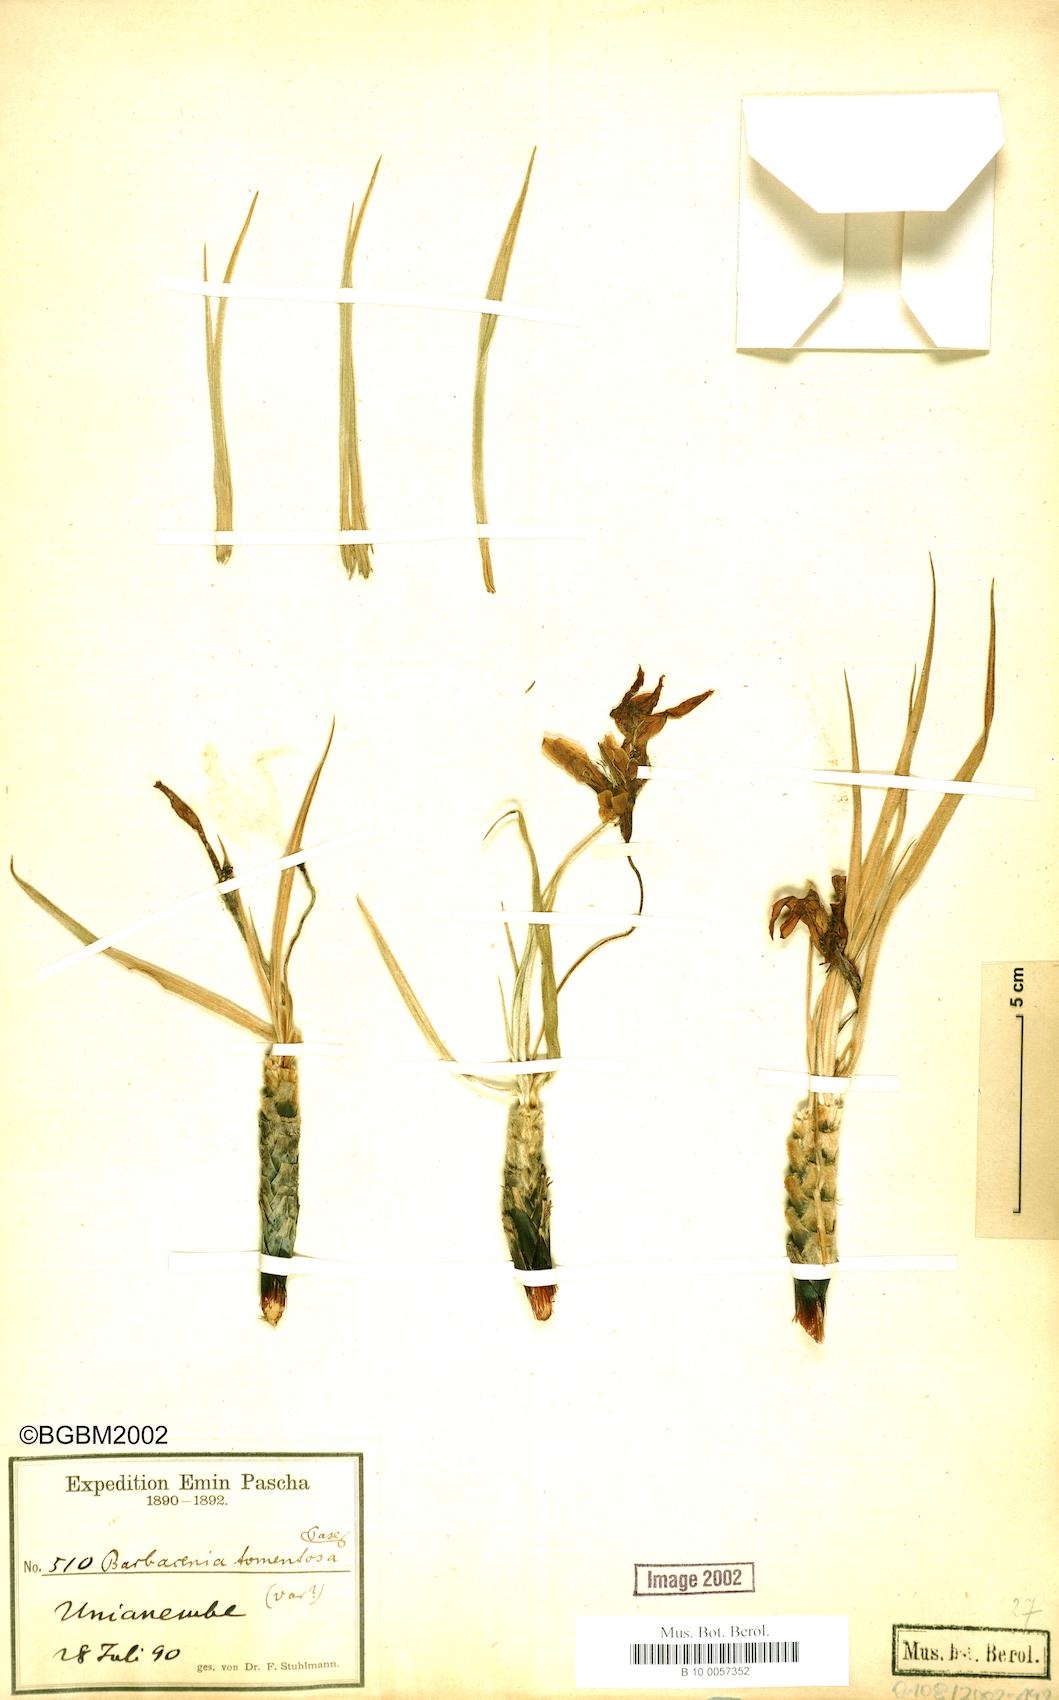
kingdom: Plantae
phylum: Tracheophyta
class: Liliopsida
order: Pandanales
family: Velloziaceae
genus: Xerophyta
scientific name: Xerophyta spekei
